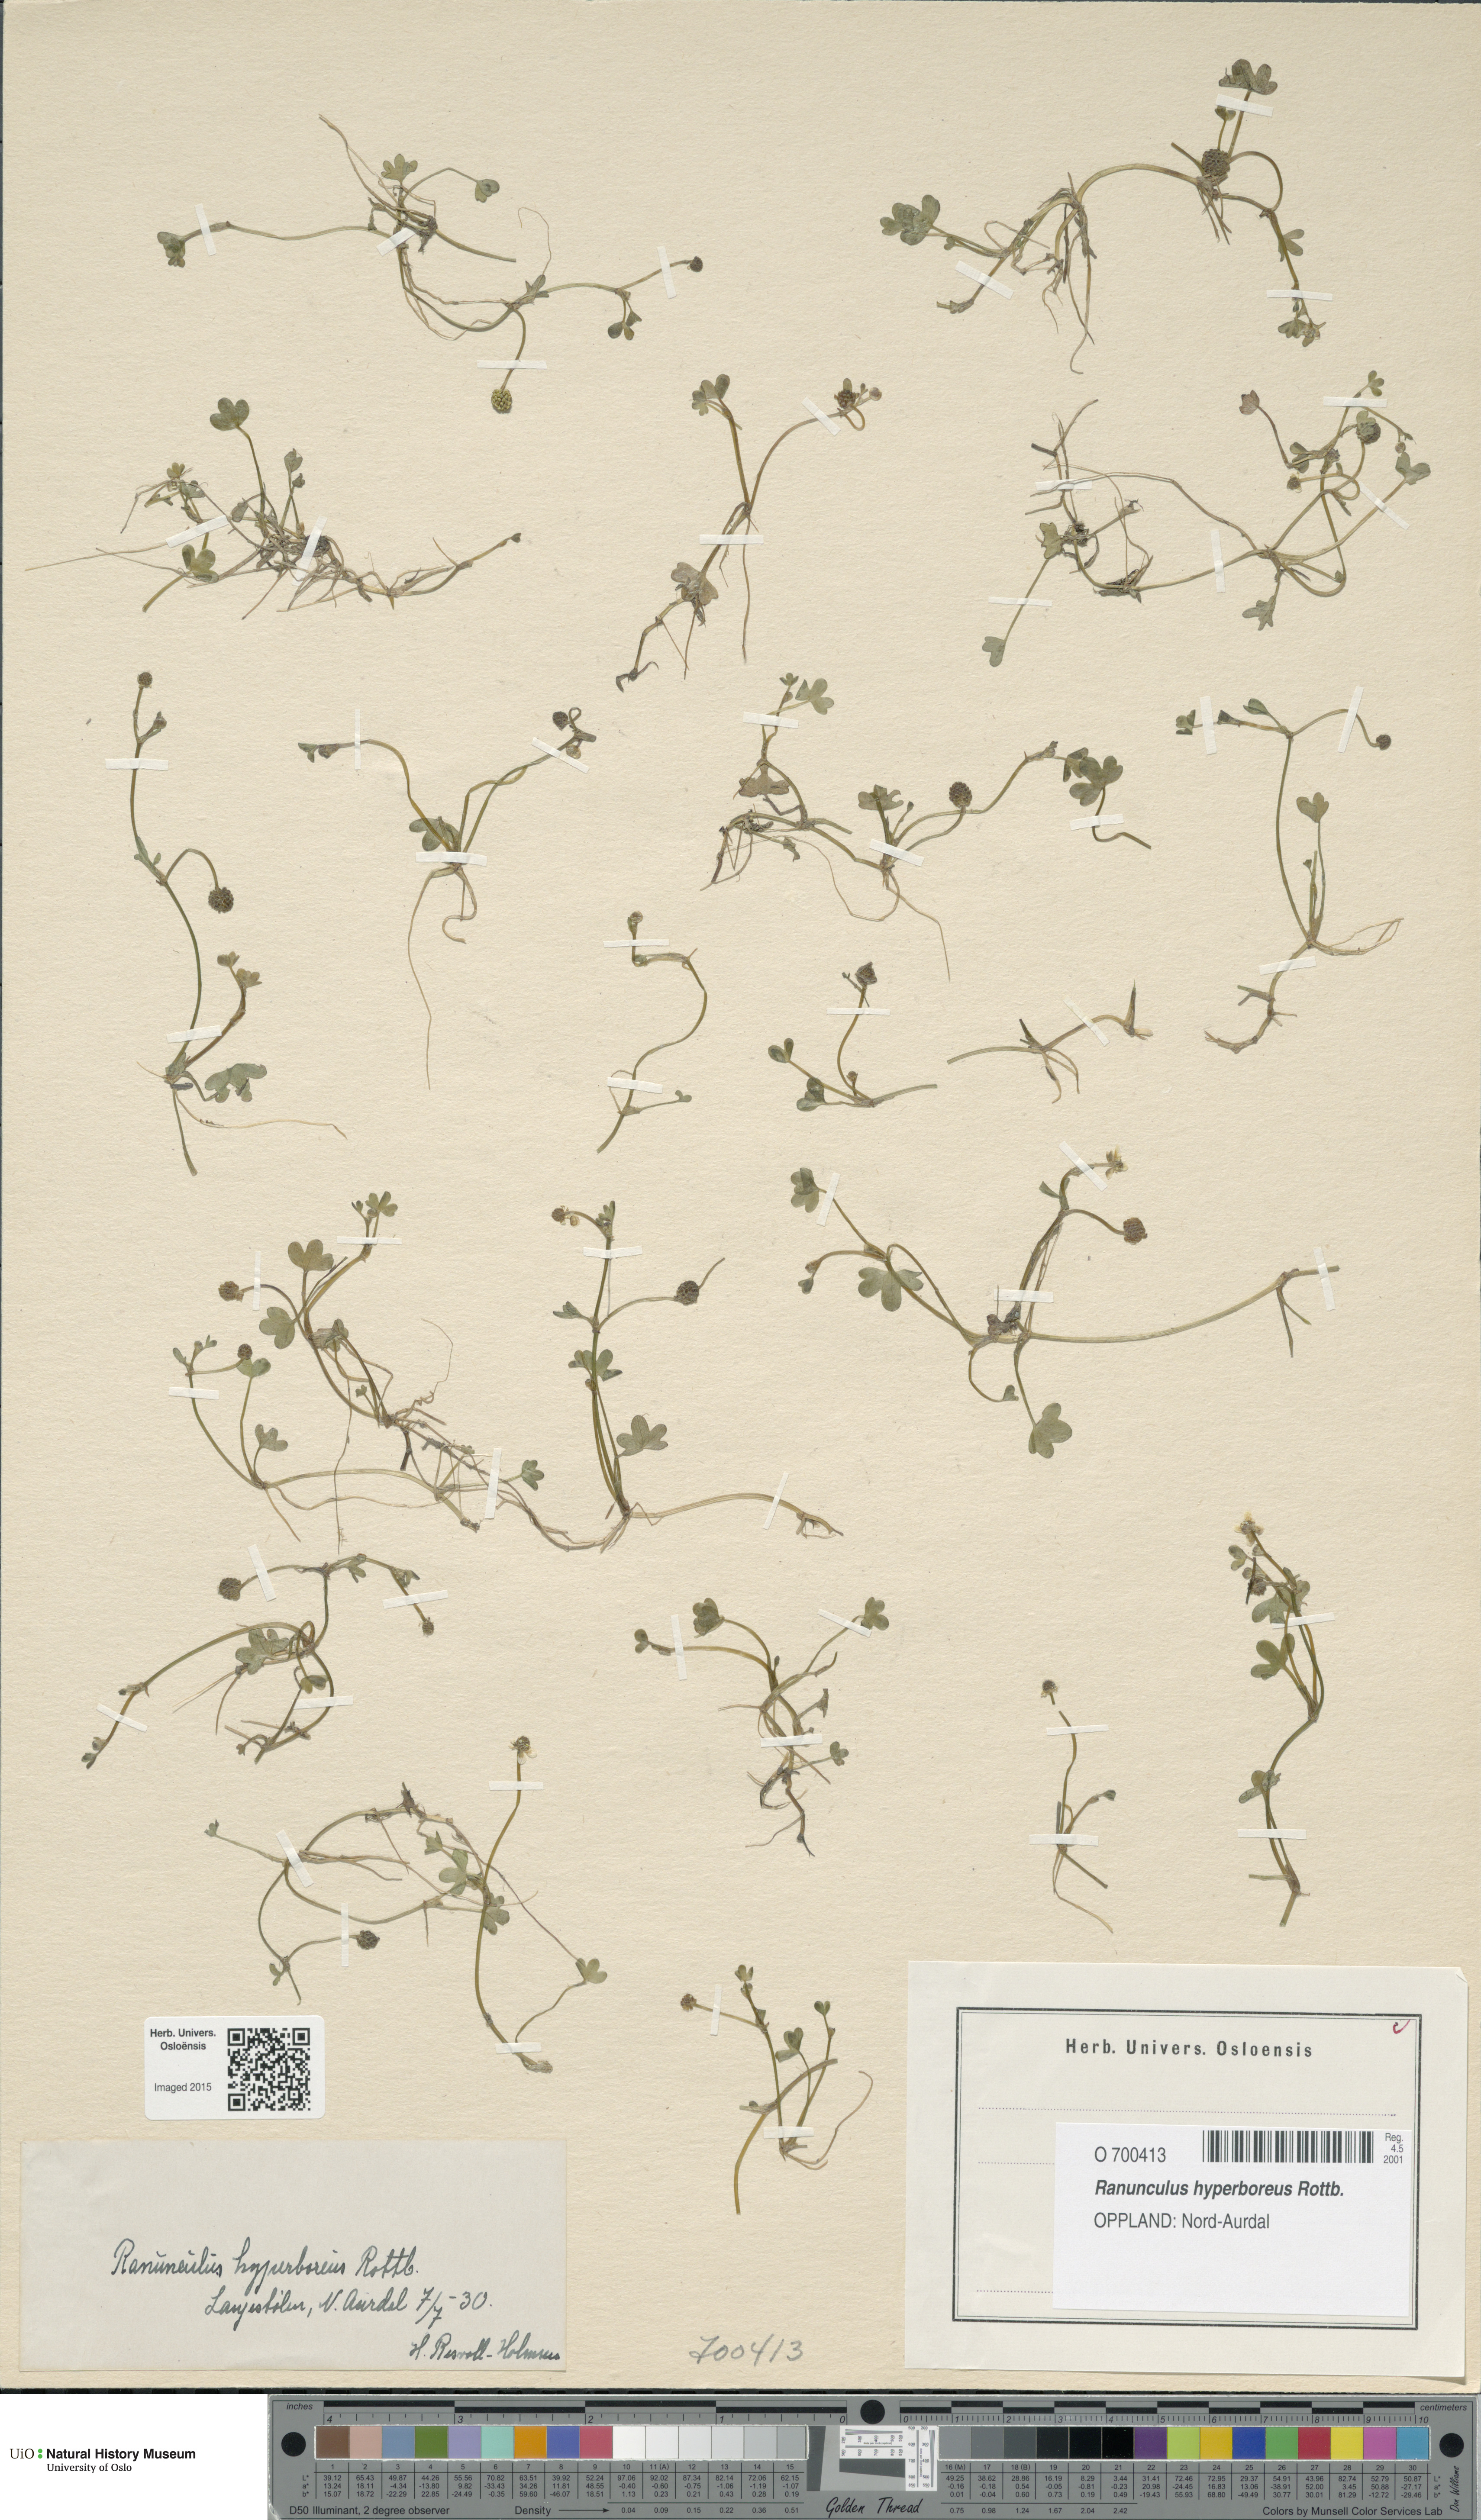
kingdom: Plantae
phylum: Tracheophyta
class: Magnoliopsida
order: Ranunculales
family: Ranunculaceae
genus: Ranunculus
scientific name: Ranunculus hyperboreus
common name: Arctic buttercup
